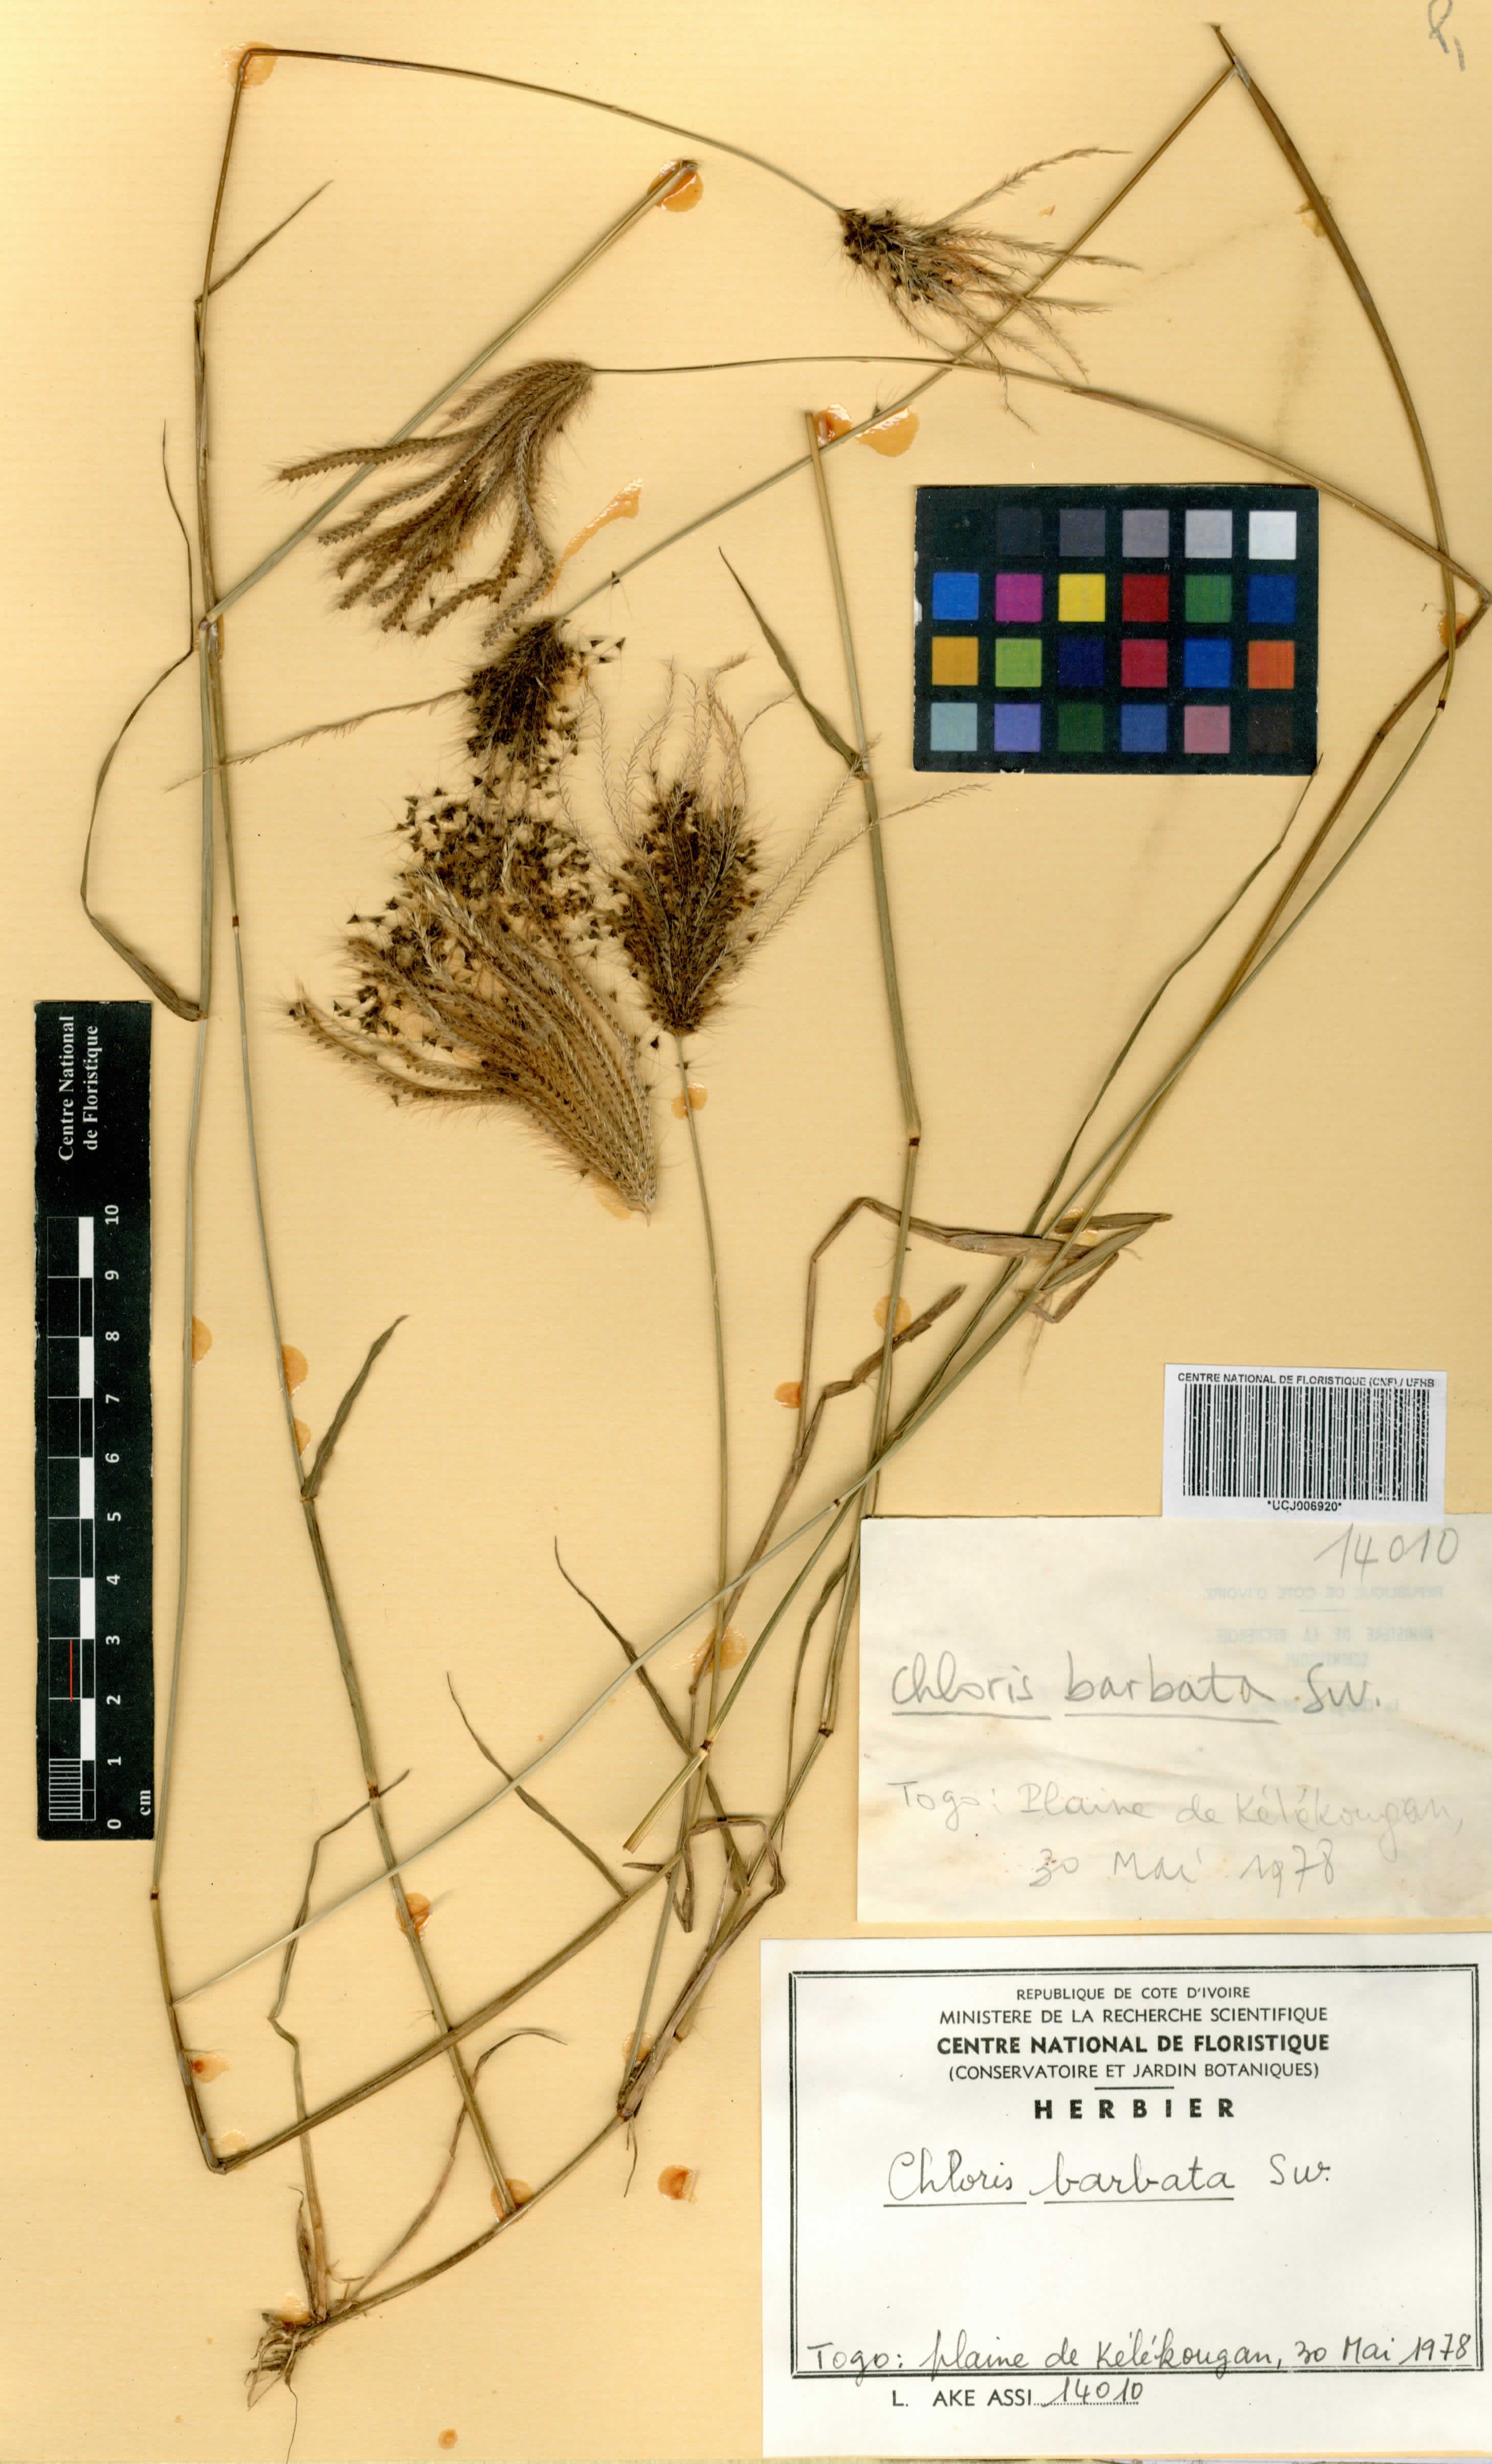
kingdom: Plantae
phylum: Tracheophyta
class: Liliopsida
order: Poales
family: Poaceae
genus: Chloris
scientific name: Chloris barbata
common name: Swollen fingergrass
